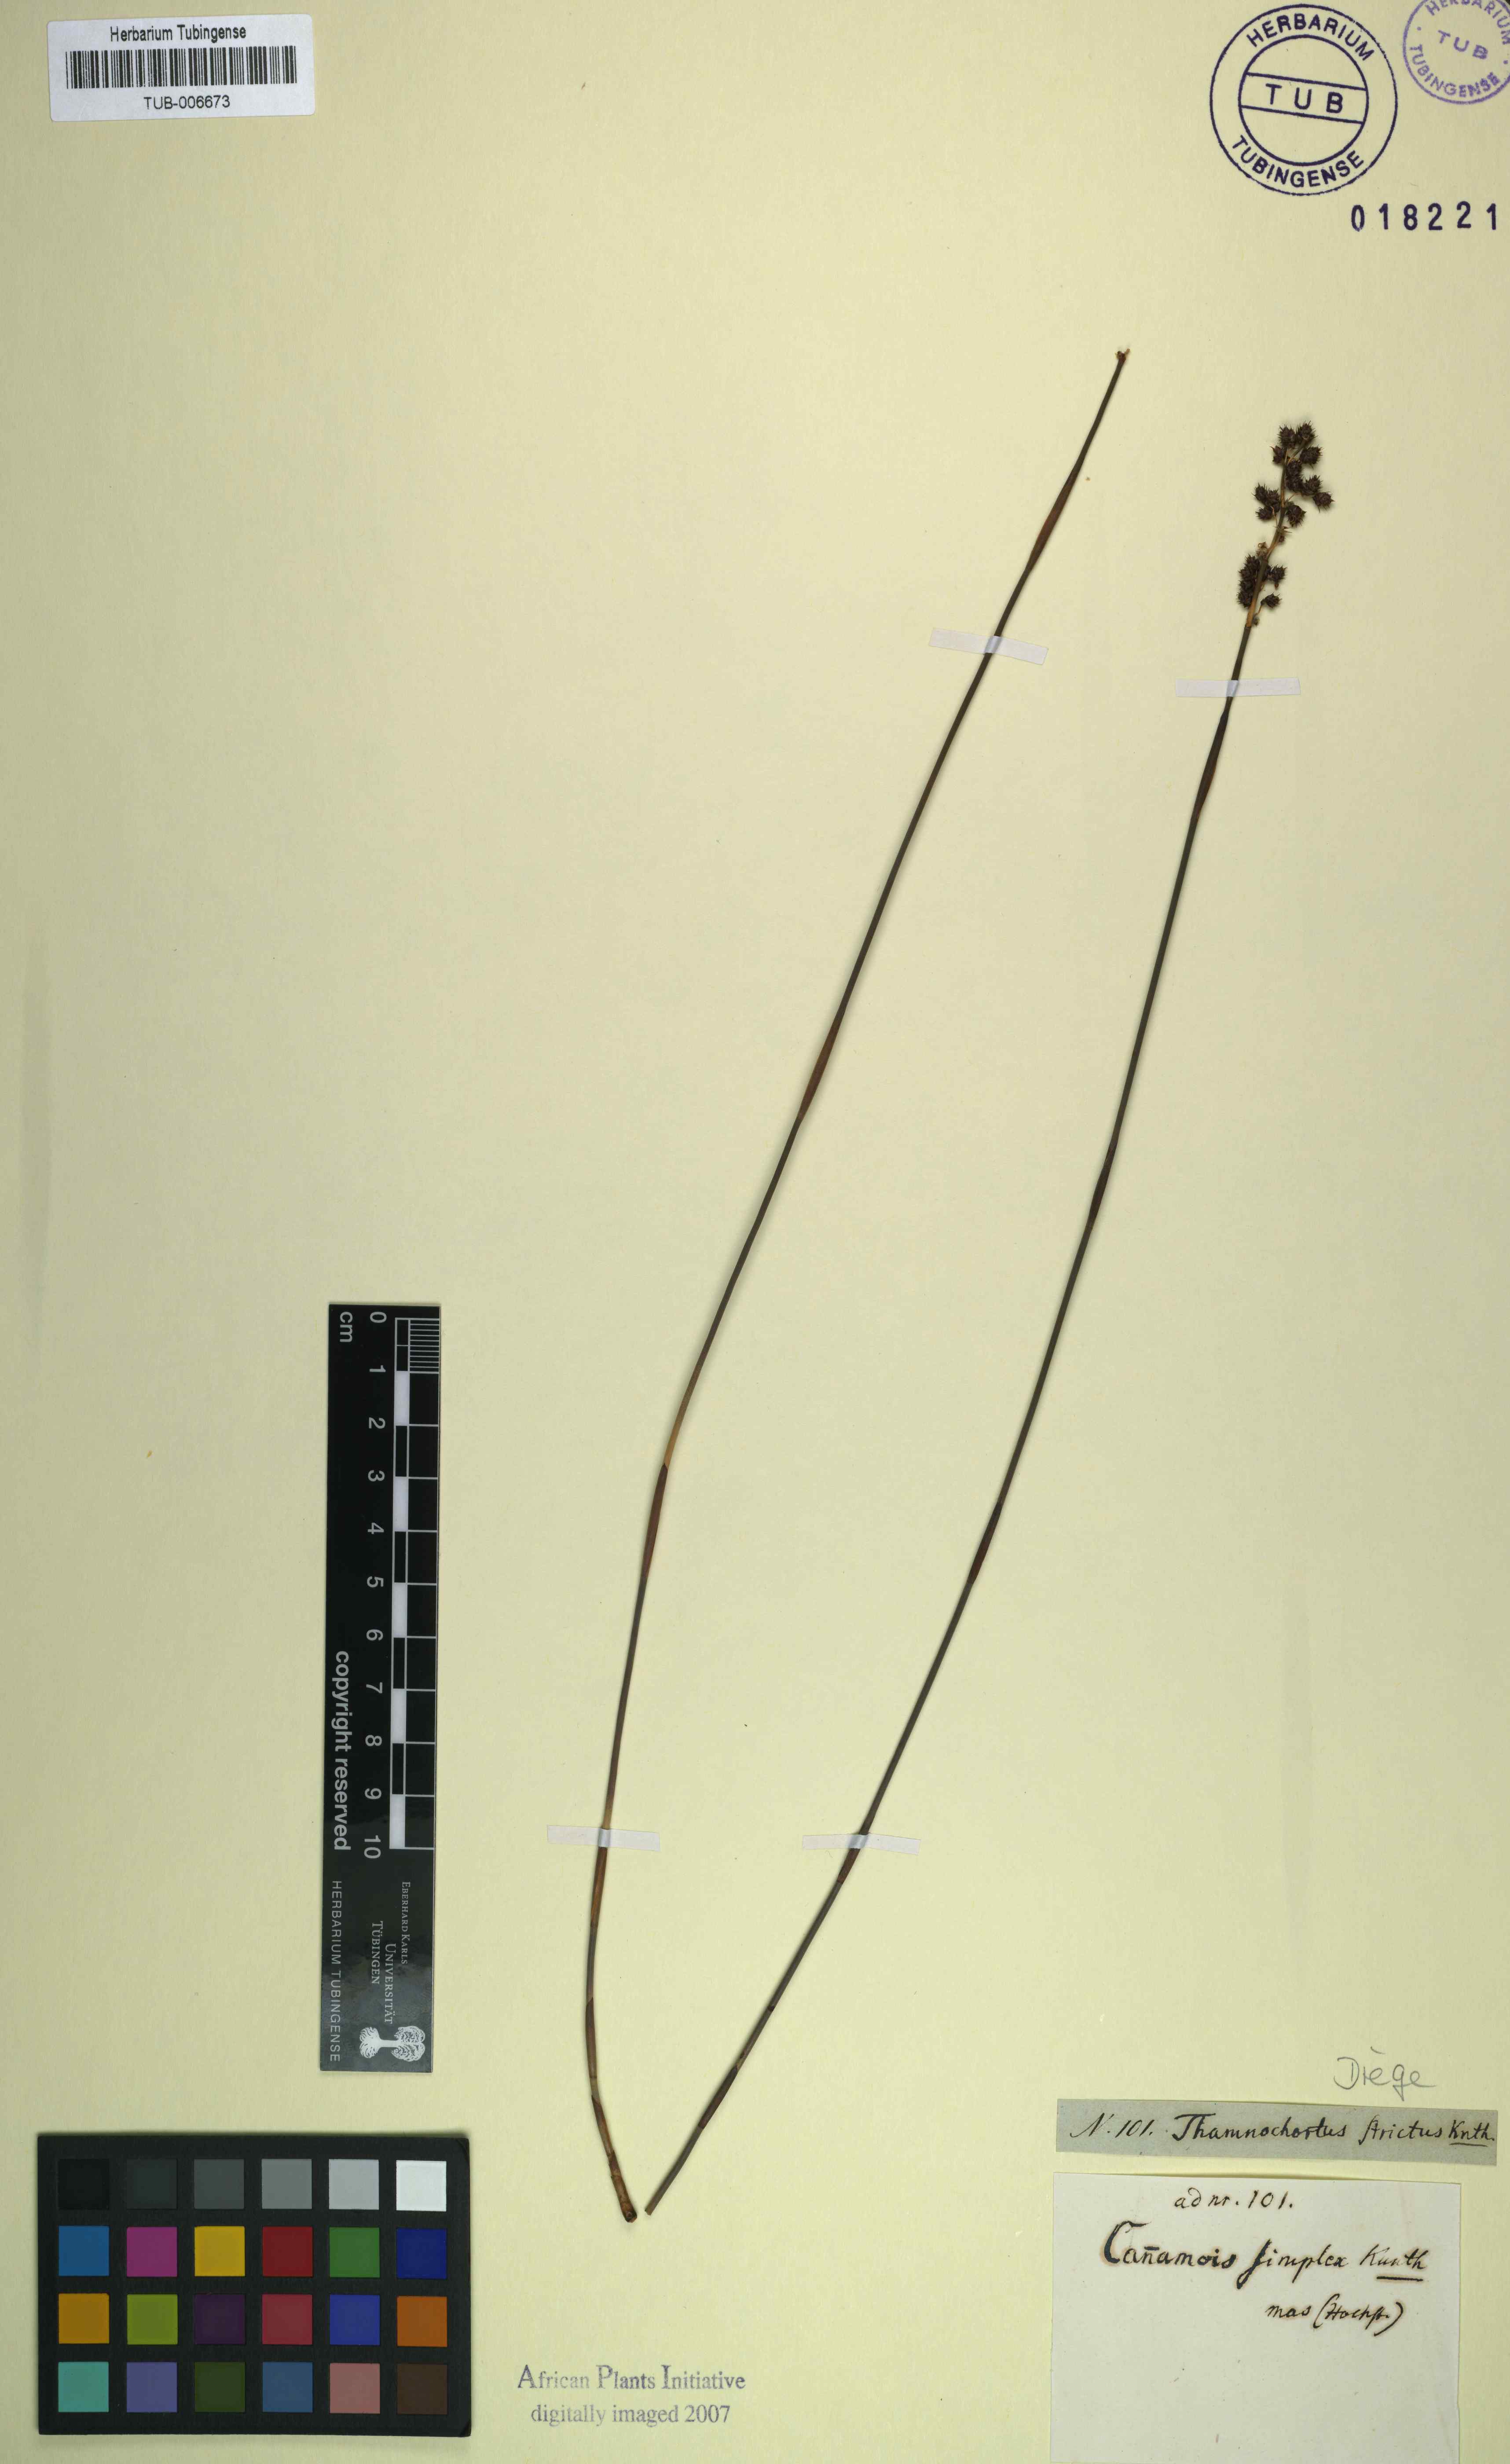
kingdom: Plantae
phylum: Tracheophyta
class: Liliopsida
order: Poales
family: Restionaceae
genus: Cannomois
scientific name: Cannomois parviflora
